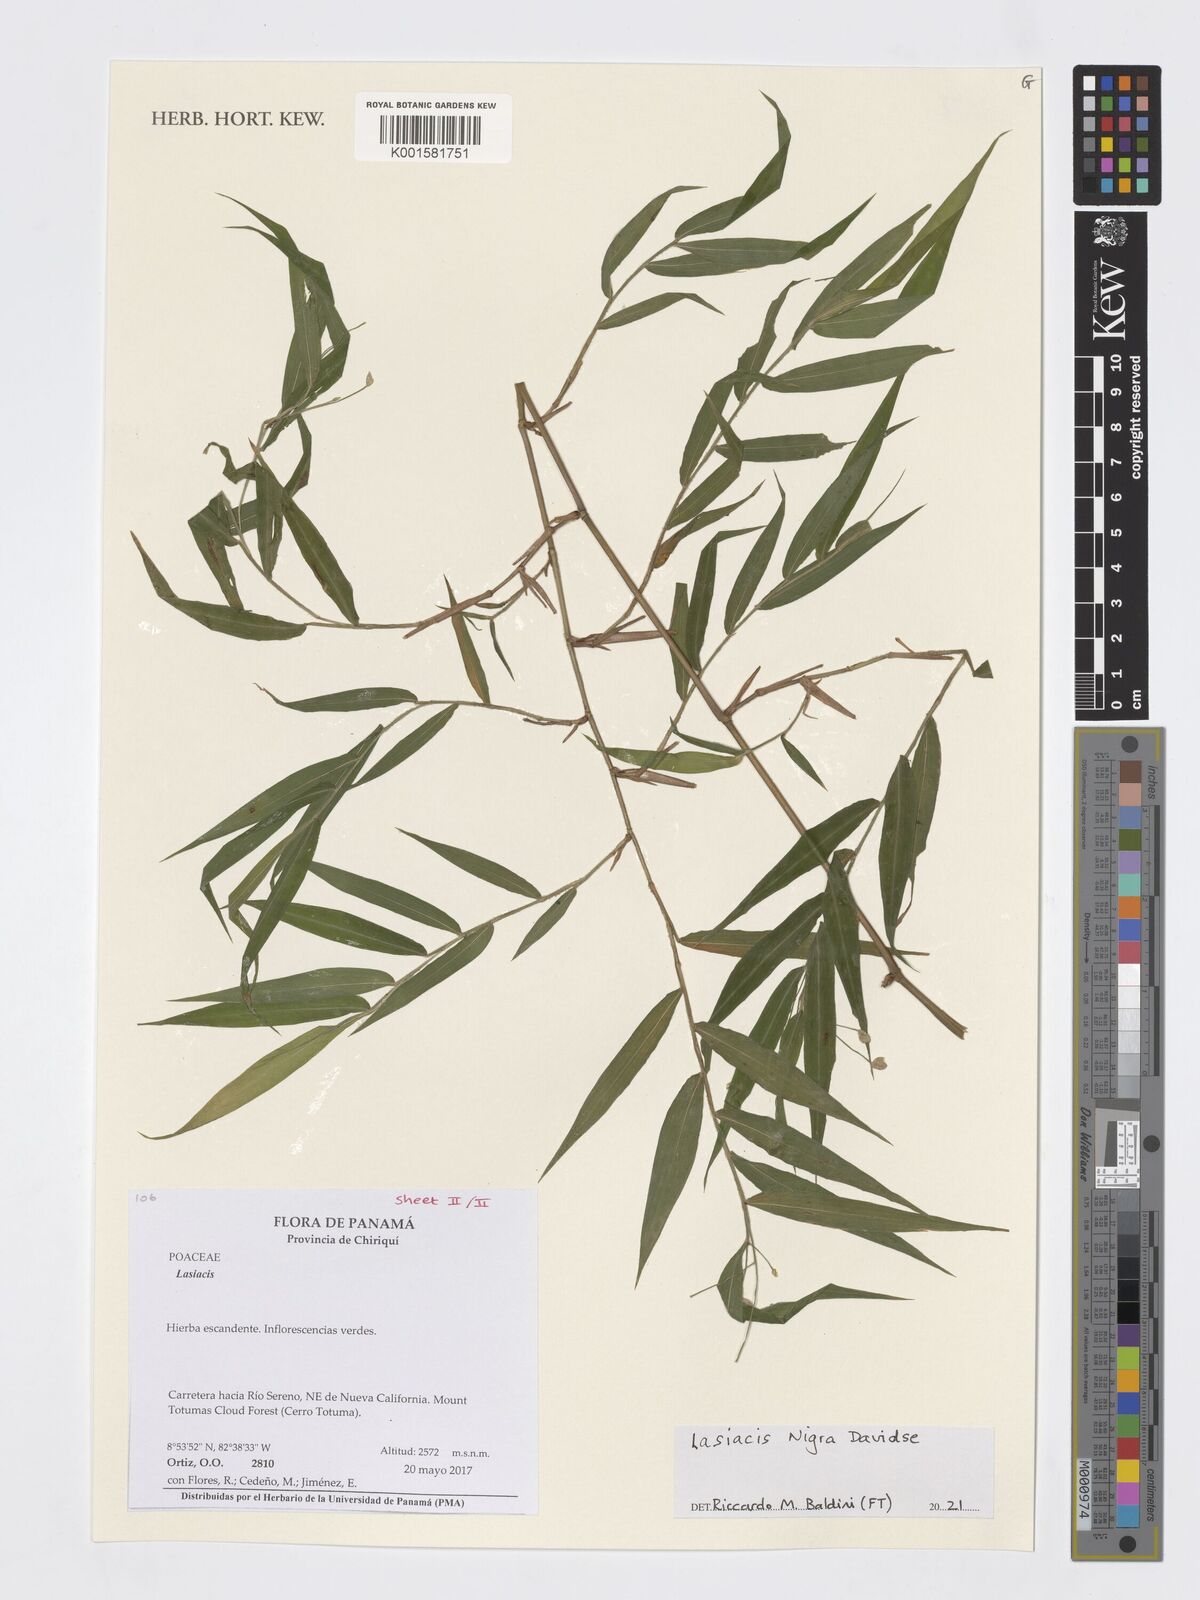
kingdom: Plantae
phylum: Tracheophyta
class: Liliopsida
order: Poales
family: Poaceae
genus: Lasiacis
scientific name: Lasiacis nigra
